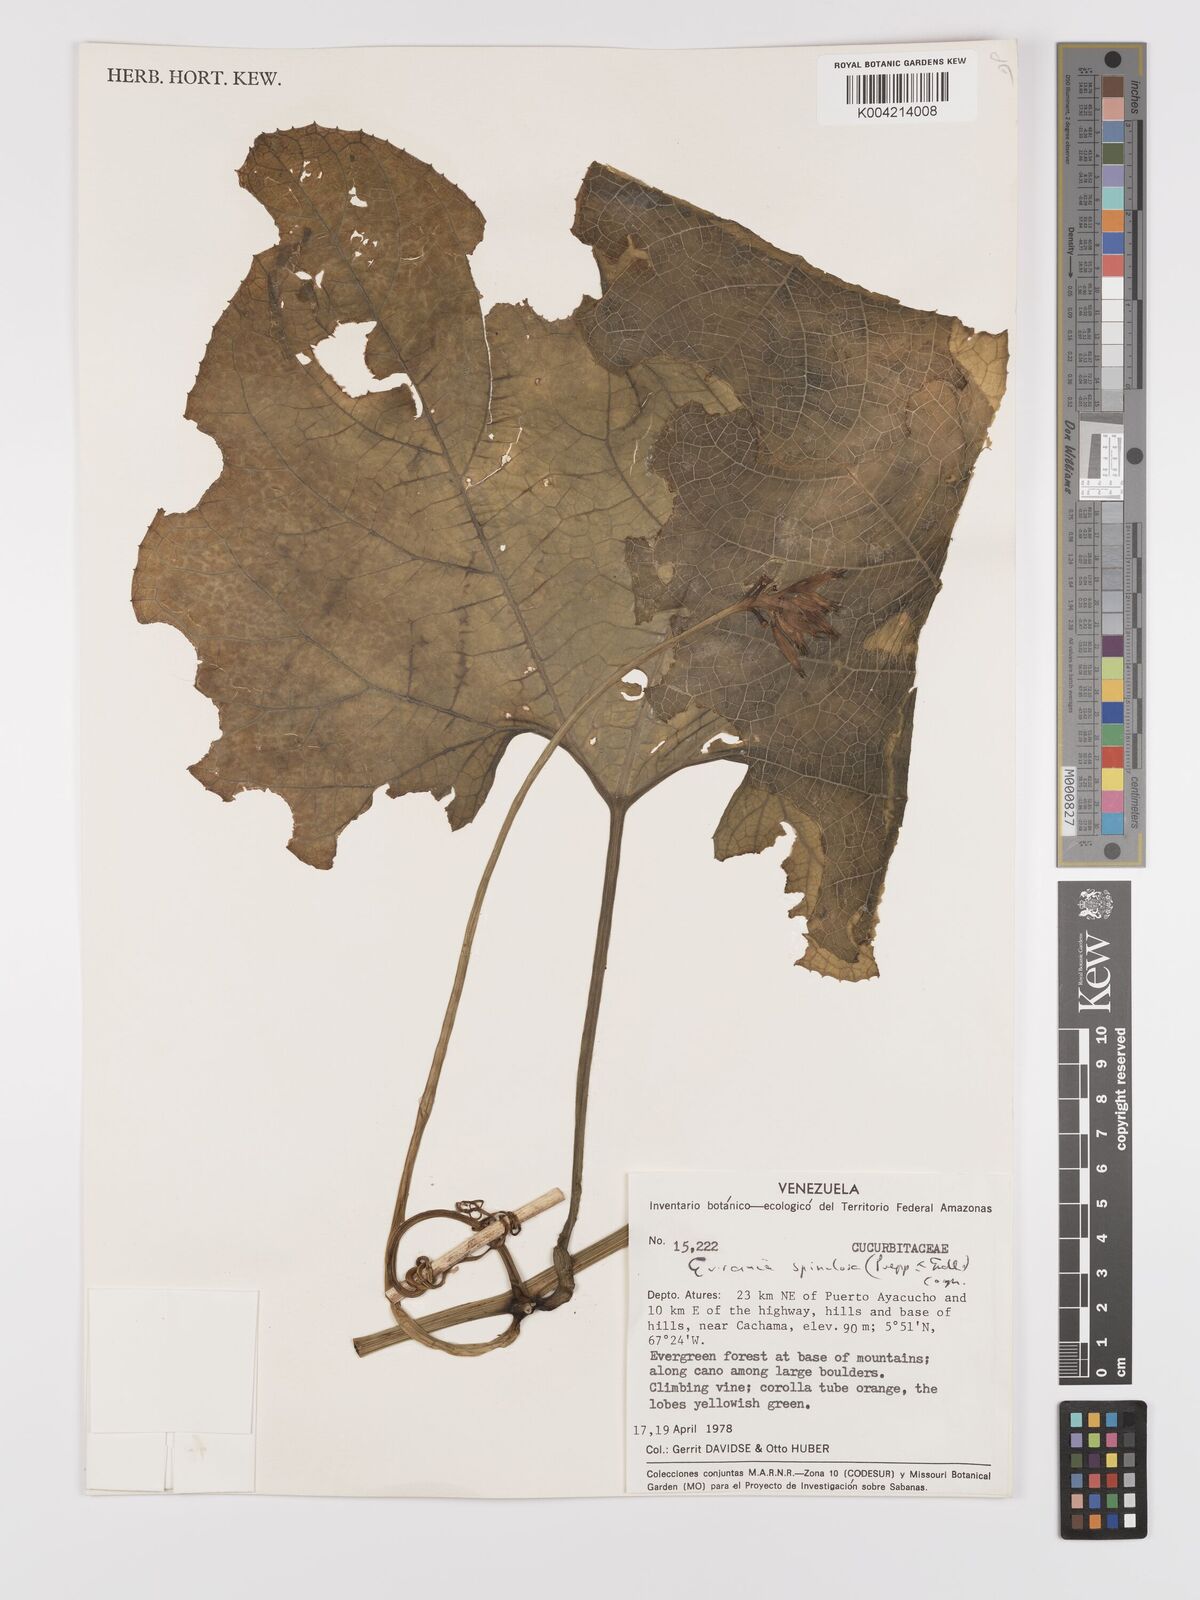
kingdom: Plantae
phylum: Tracheophyta
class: Magnoliopsida
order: Cucurbitales
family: Cucurbitaceae
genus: Gurania
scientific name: Gurania lobata
